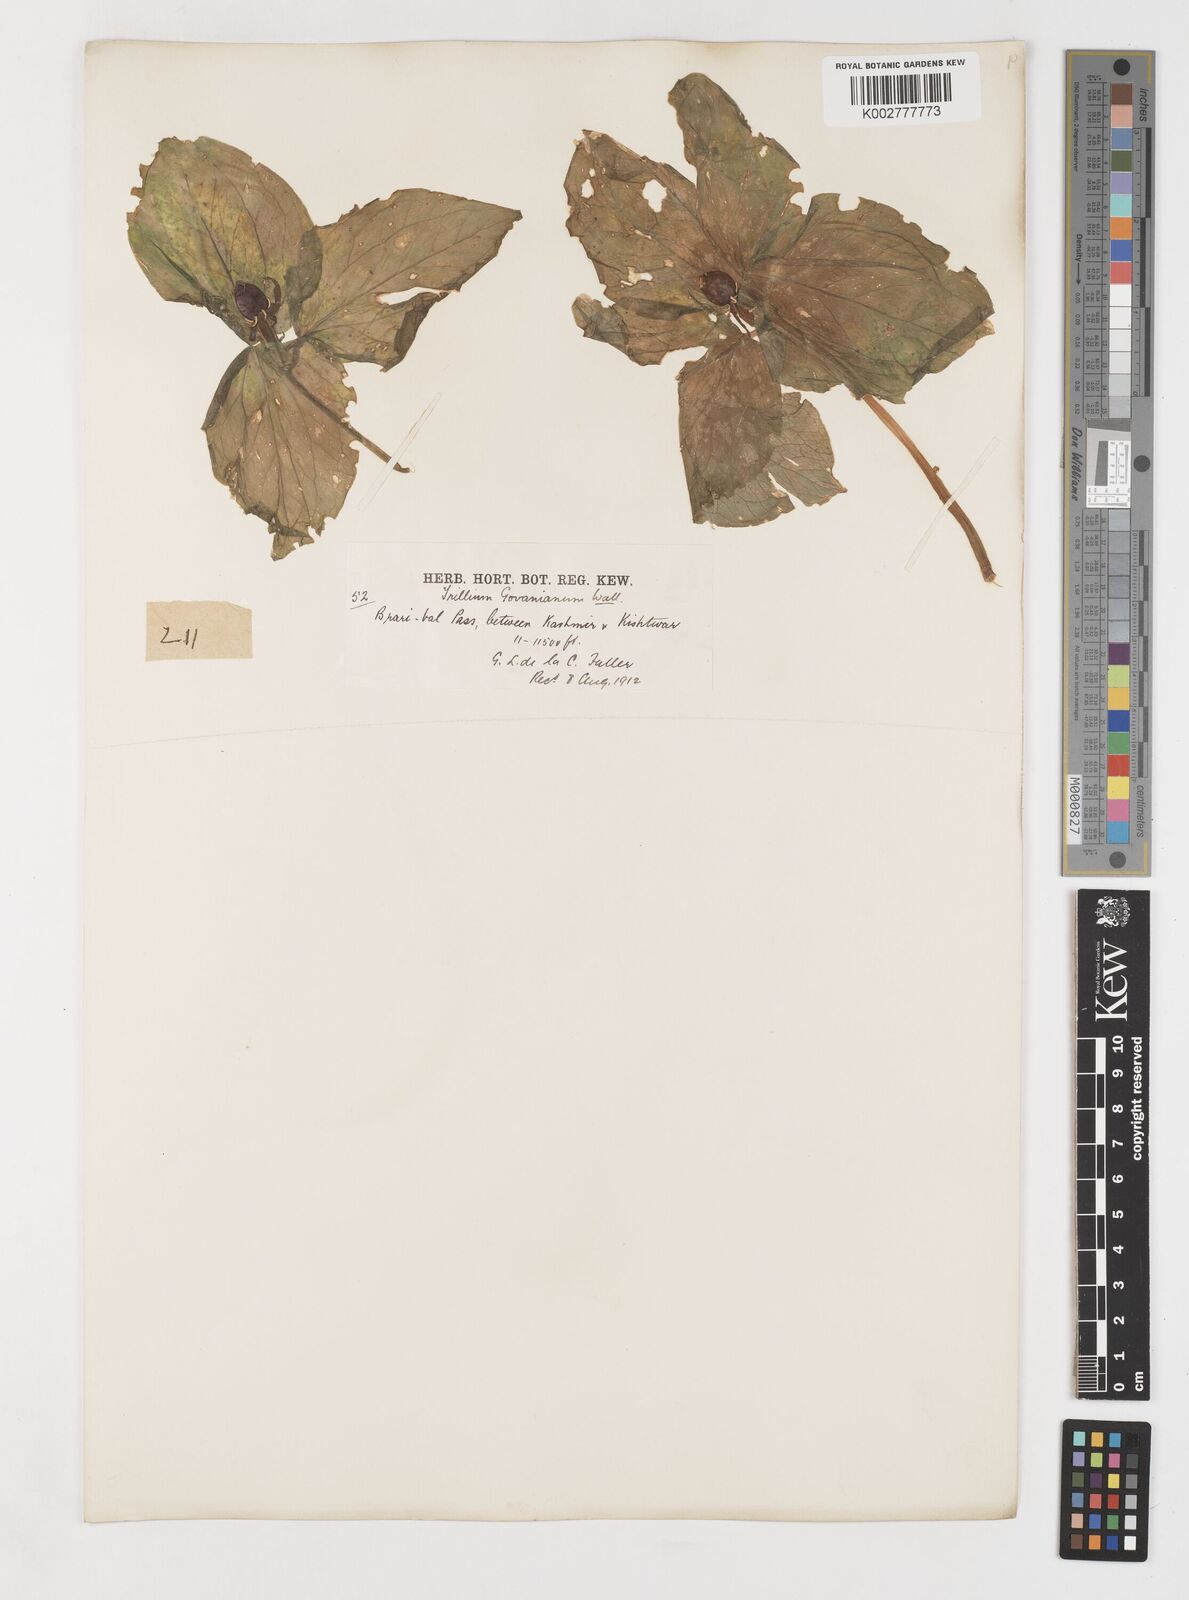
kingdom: Plantae
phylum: Tracheophyta
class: Liliopsida
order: Liliales
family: Melanthiaceae
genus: Trillium
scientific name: Trillium govanianum
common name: Himalayan trillium
